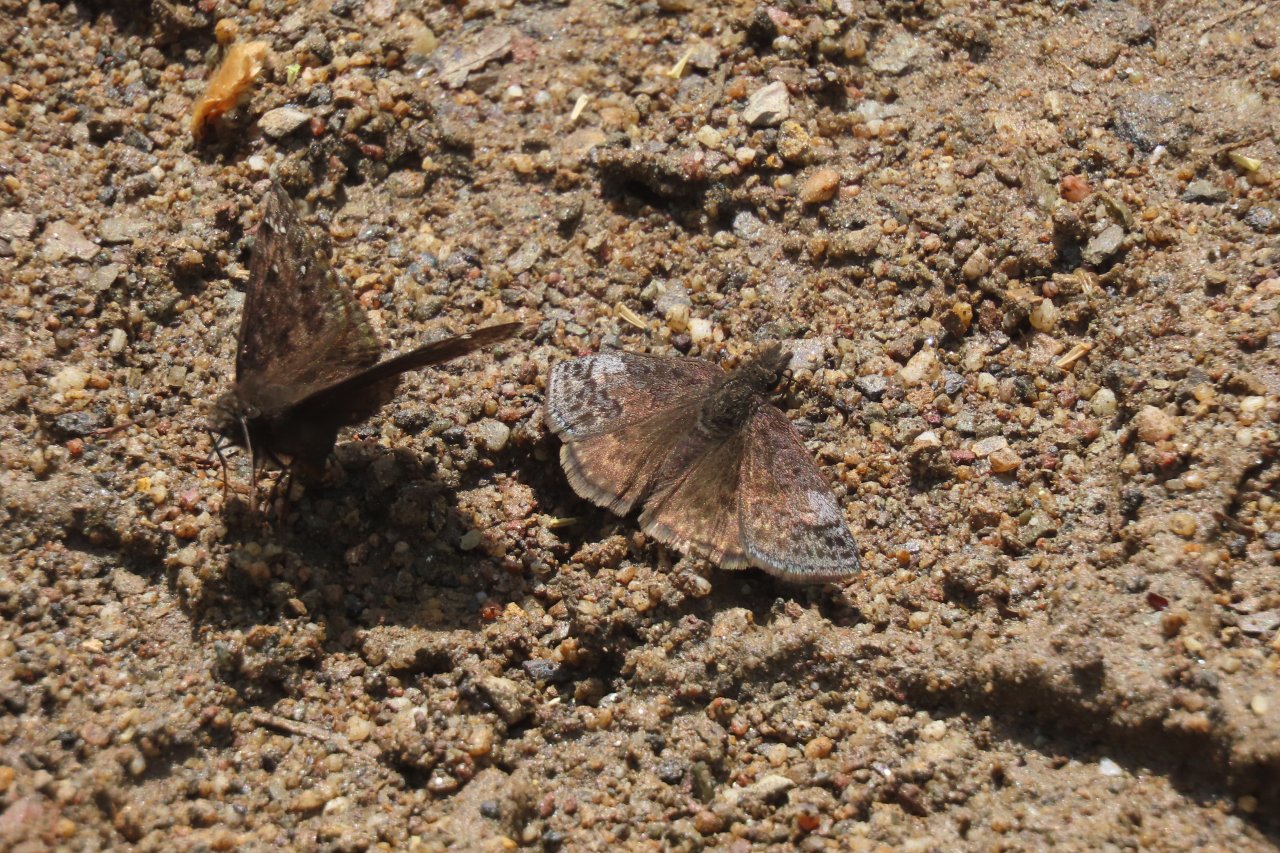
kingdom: Animalia
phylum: Arthropoda
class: Insecta
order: Lepidoptera
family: Hesperiidae
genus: Erynnis
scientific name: Erynnis icelus
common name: Dreamy Duskywing
